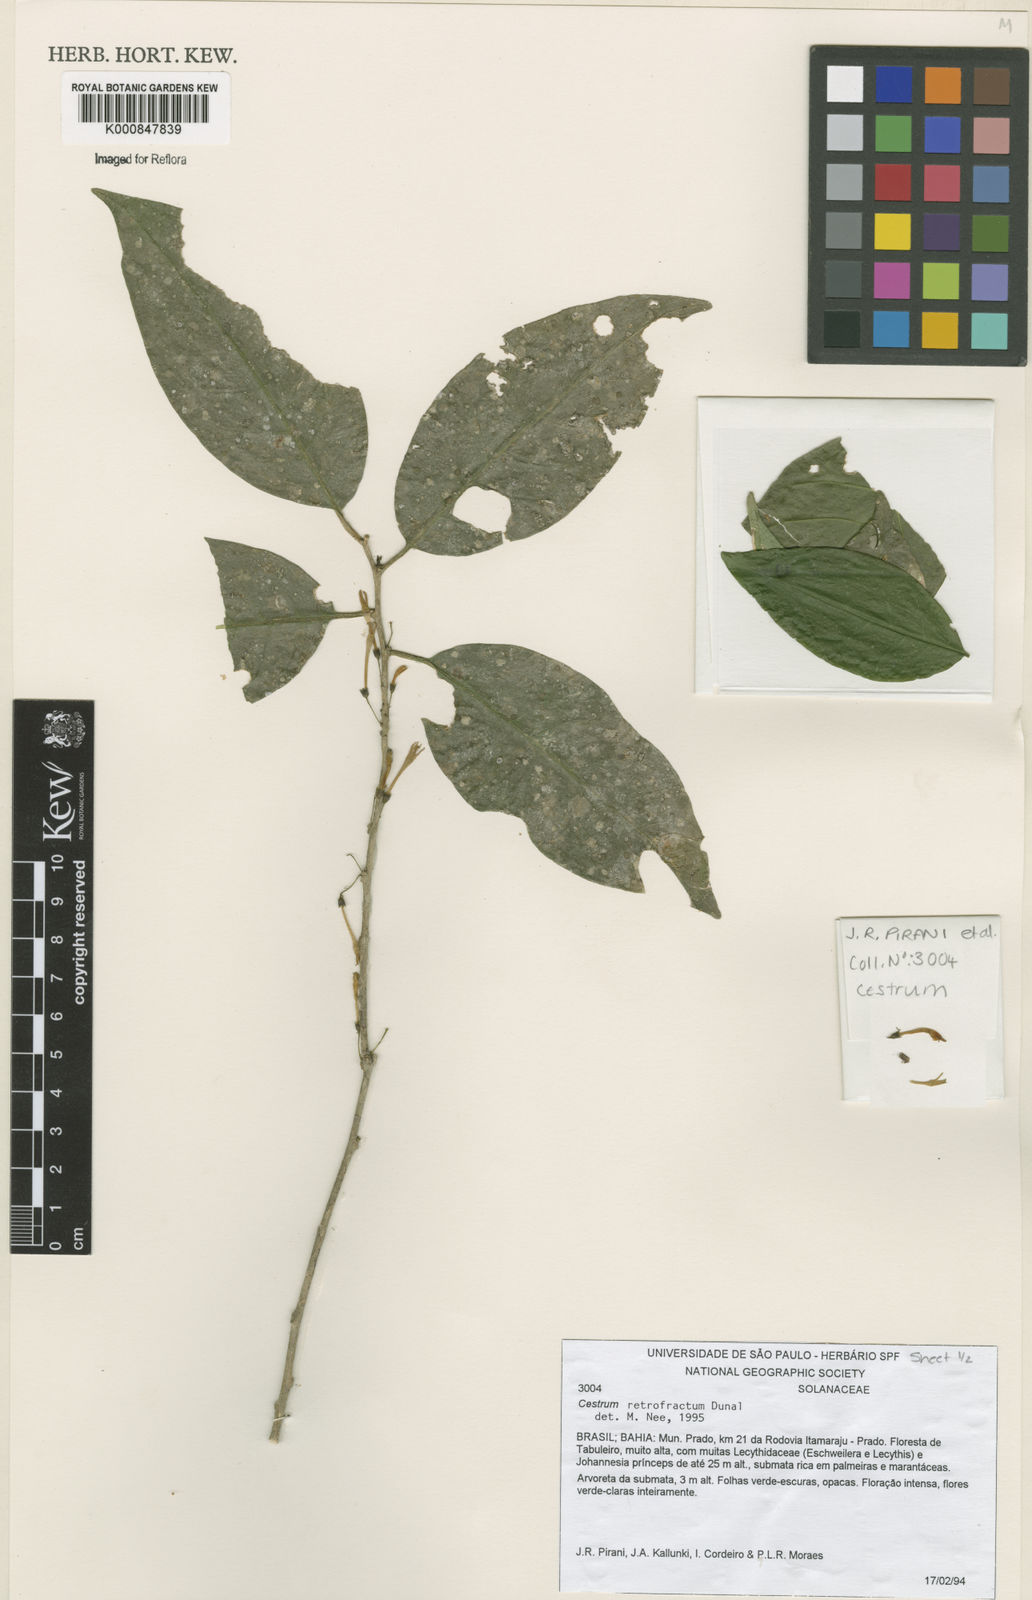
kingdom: Plantae
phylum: Tracheophyta
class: Magnoliopsida
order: Solanales
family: Solanaceae
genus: Cestrum
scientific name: Cestrum retrofractum
